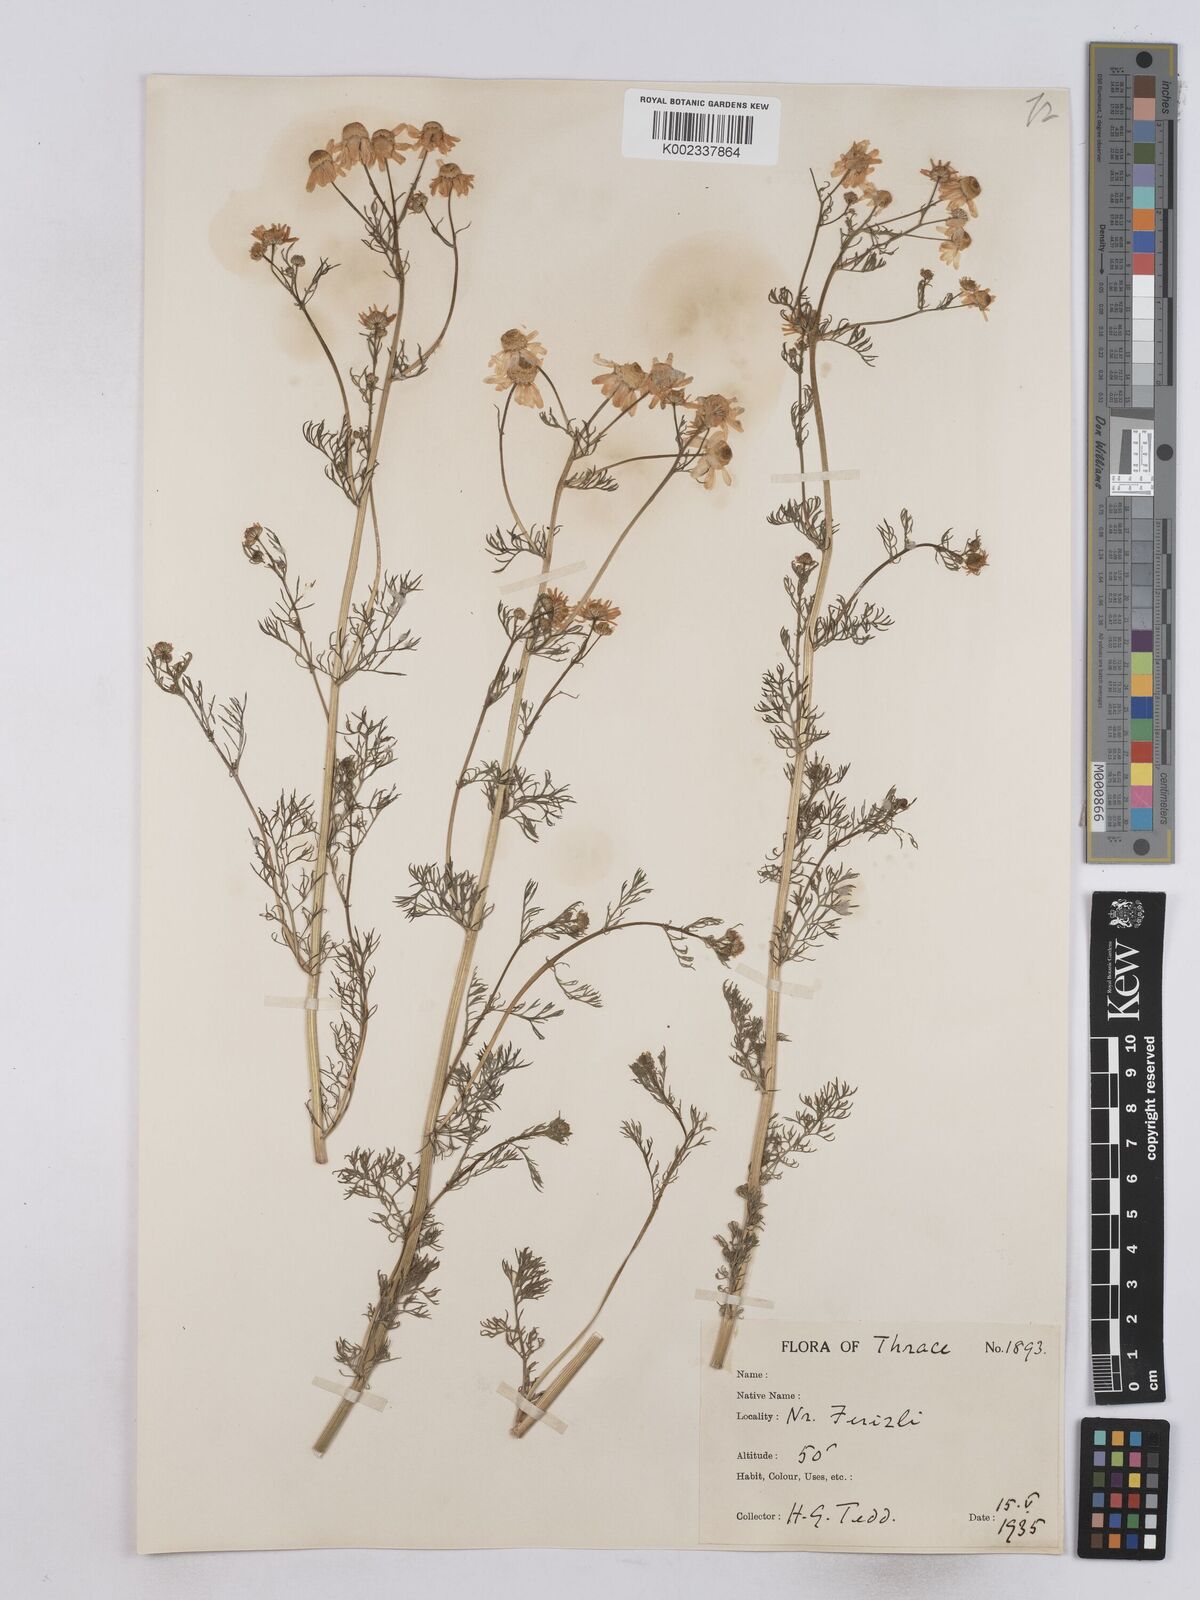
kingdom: Plantae
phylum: Tracheophyta
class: Magnoliopsida
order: Asterales
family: Asteraceae
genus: Matricaria
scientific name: Matricaria chamomilla
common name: Scented mayweed
